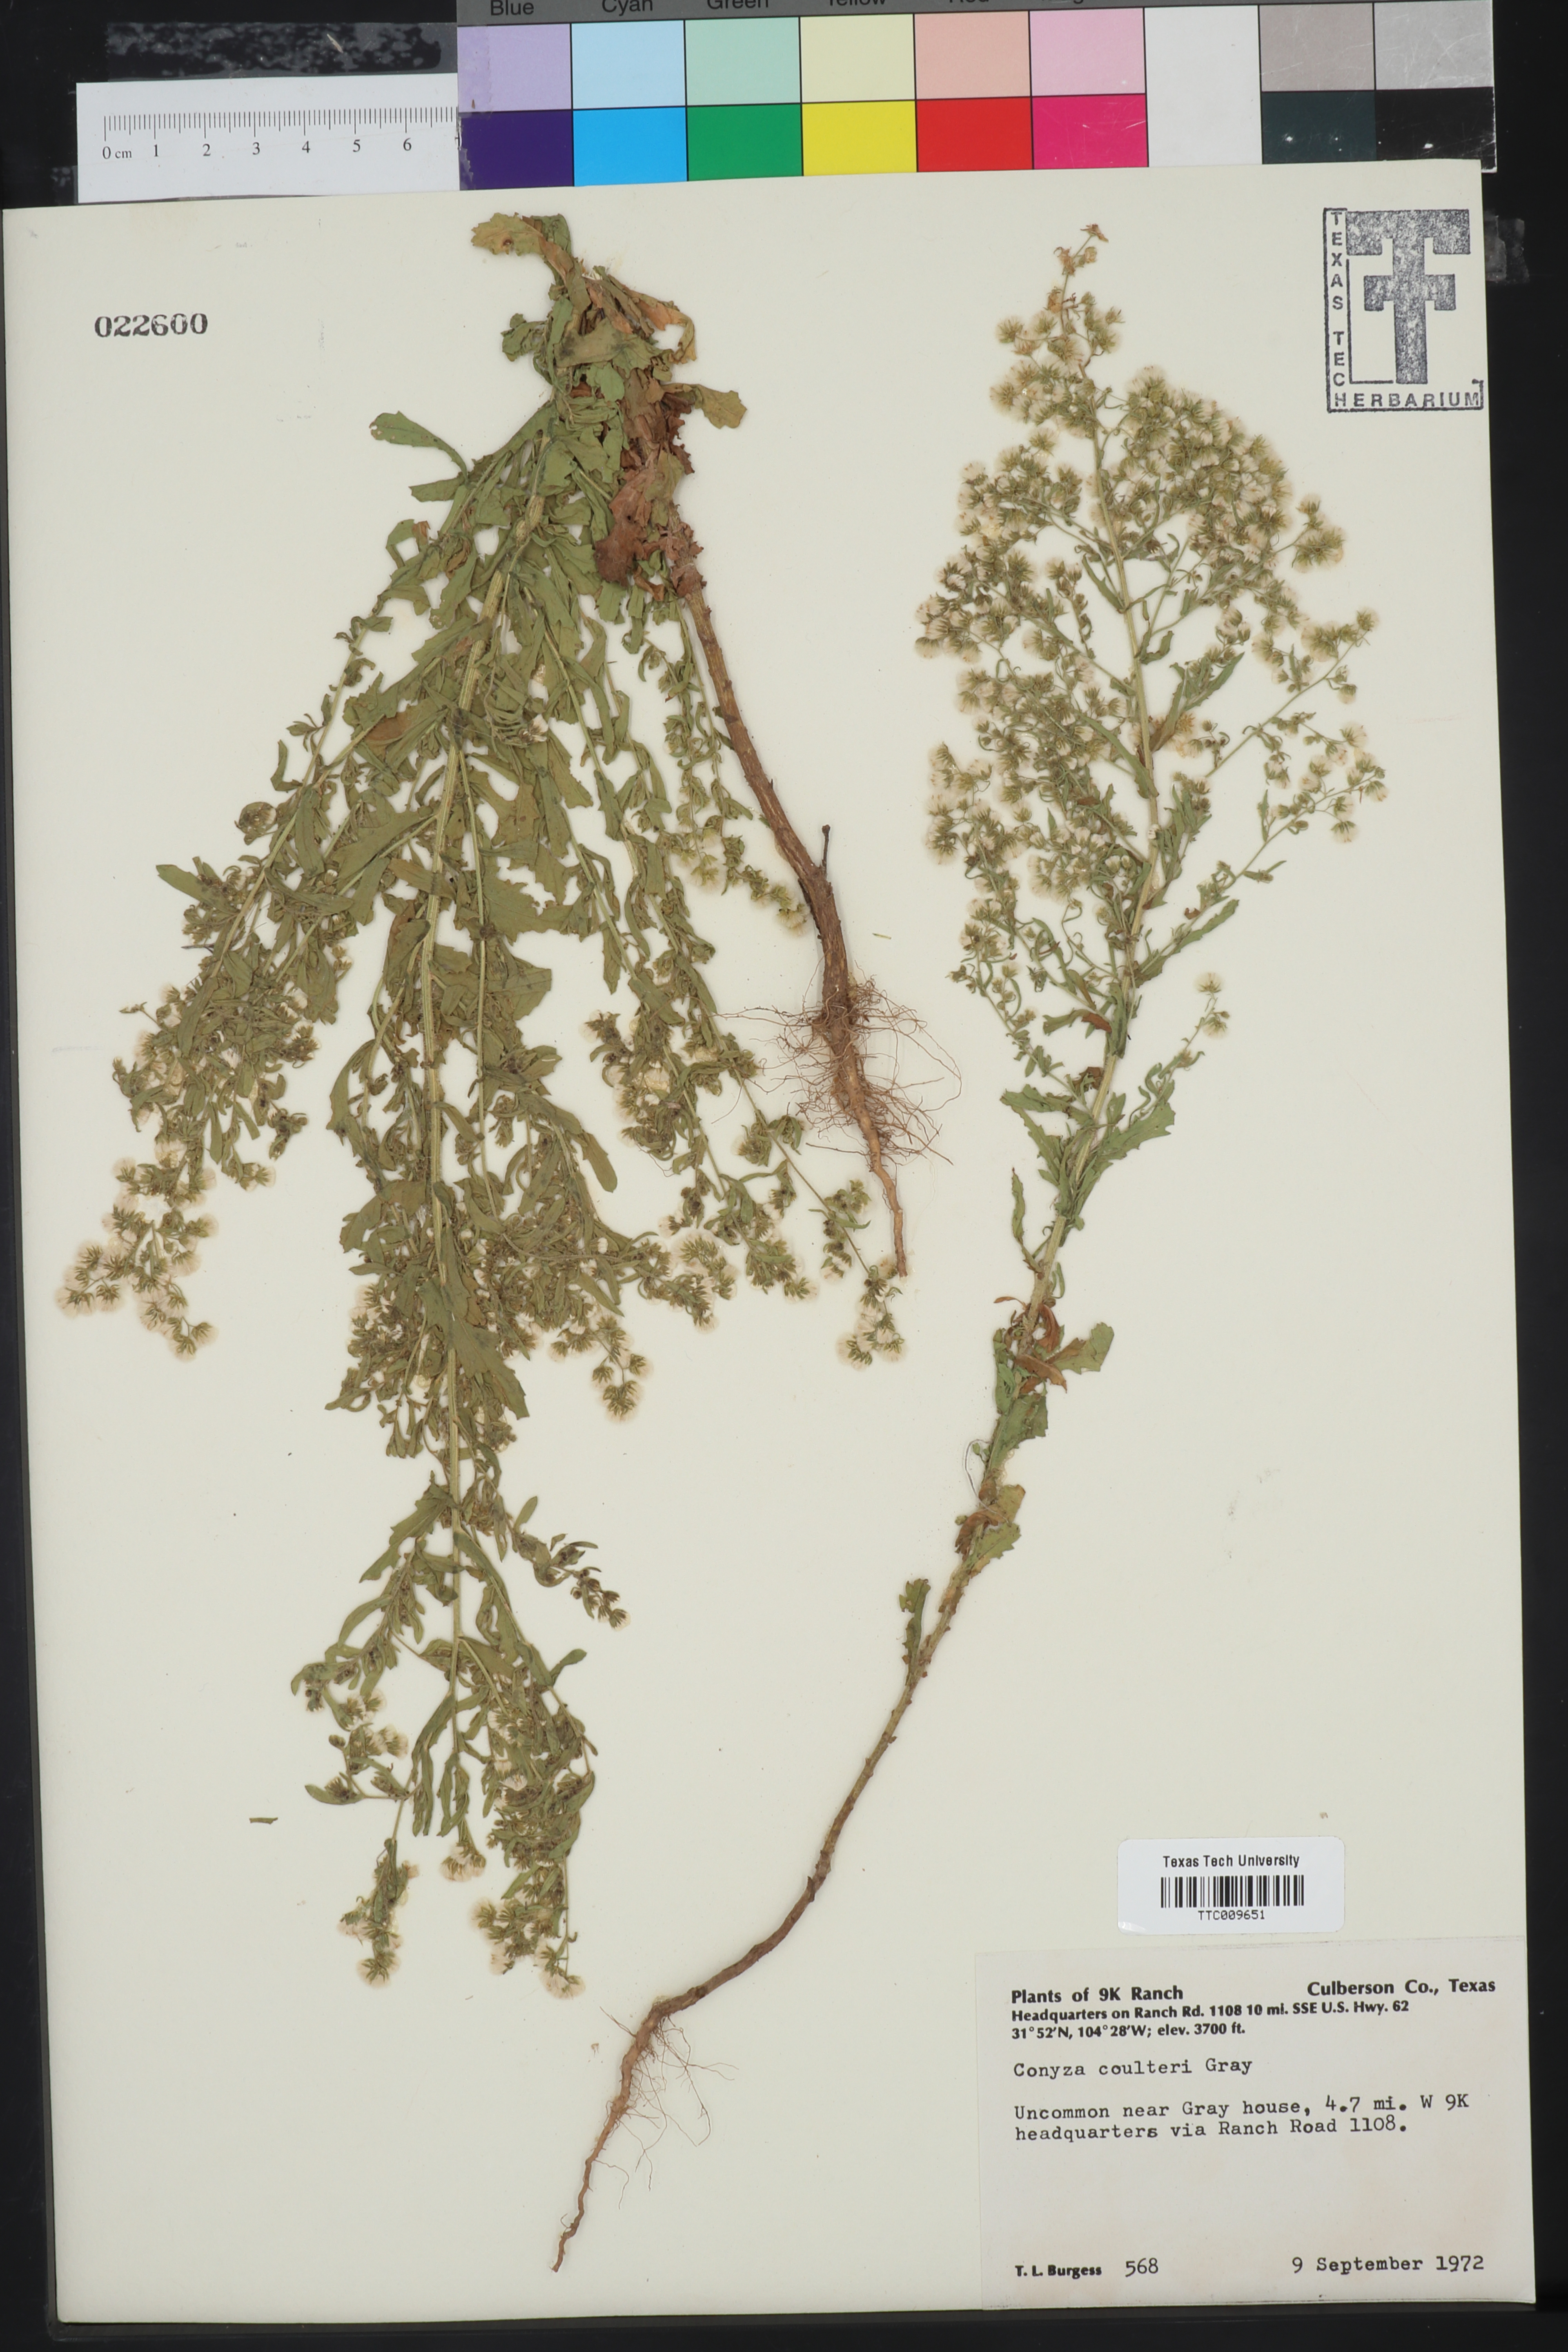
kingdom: Plantae
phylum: Tracheophyta
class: Magnoliopsida
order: Asterales
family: Asteraceae
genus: Laennecia
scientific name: Laennecia coulteri
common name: Coulter's woolwort
